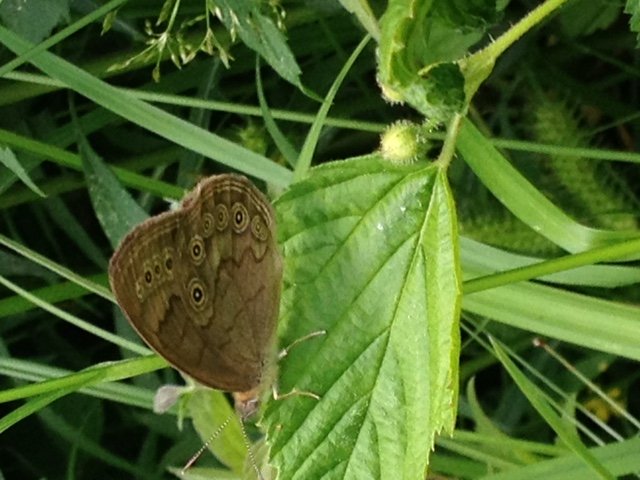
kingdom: Animalia
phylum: Arthropoda
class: Insecta
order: Lepidoptera
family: Nymphalidae
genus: Lethe
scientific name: Lethe
